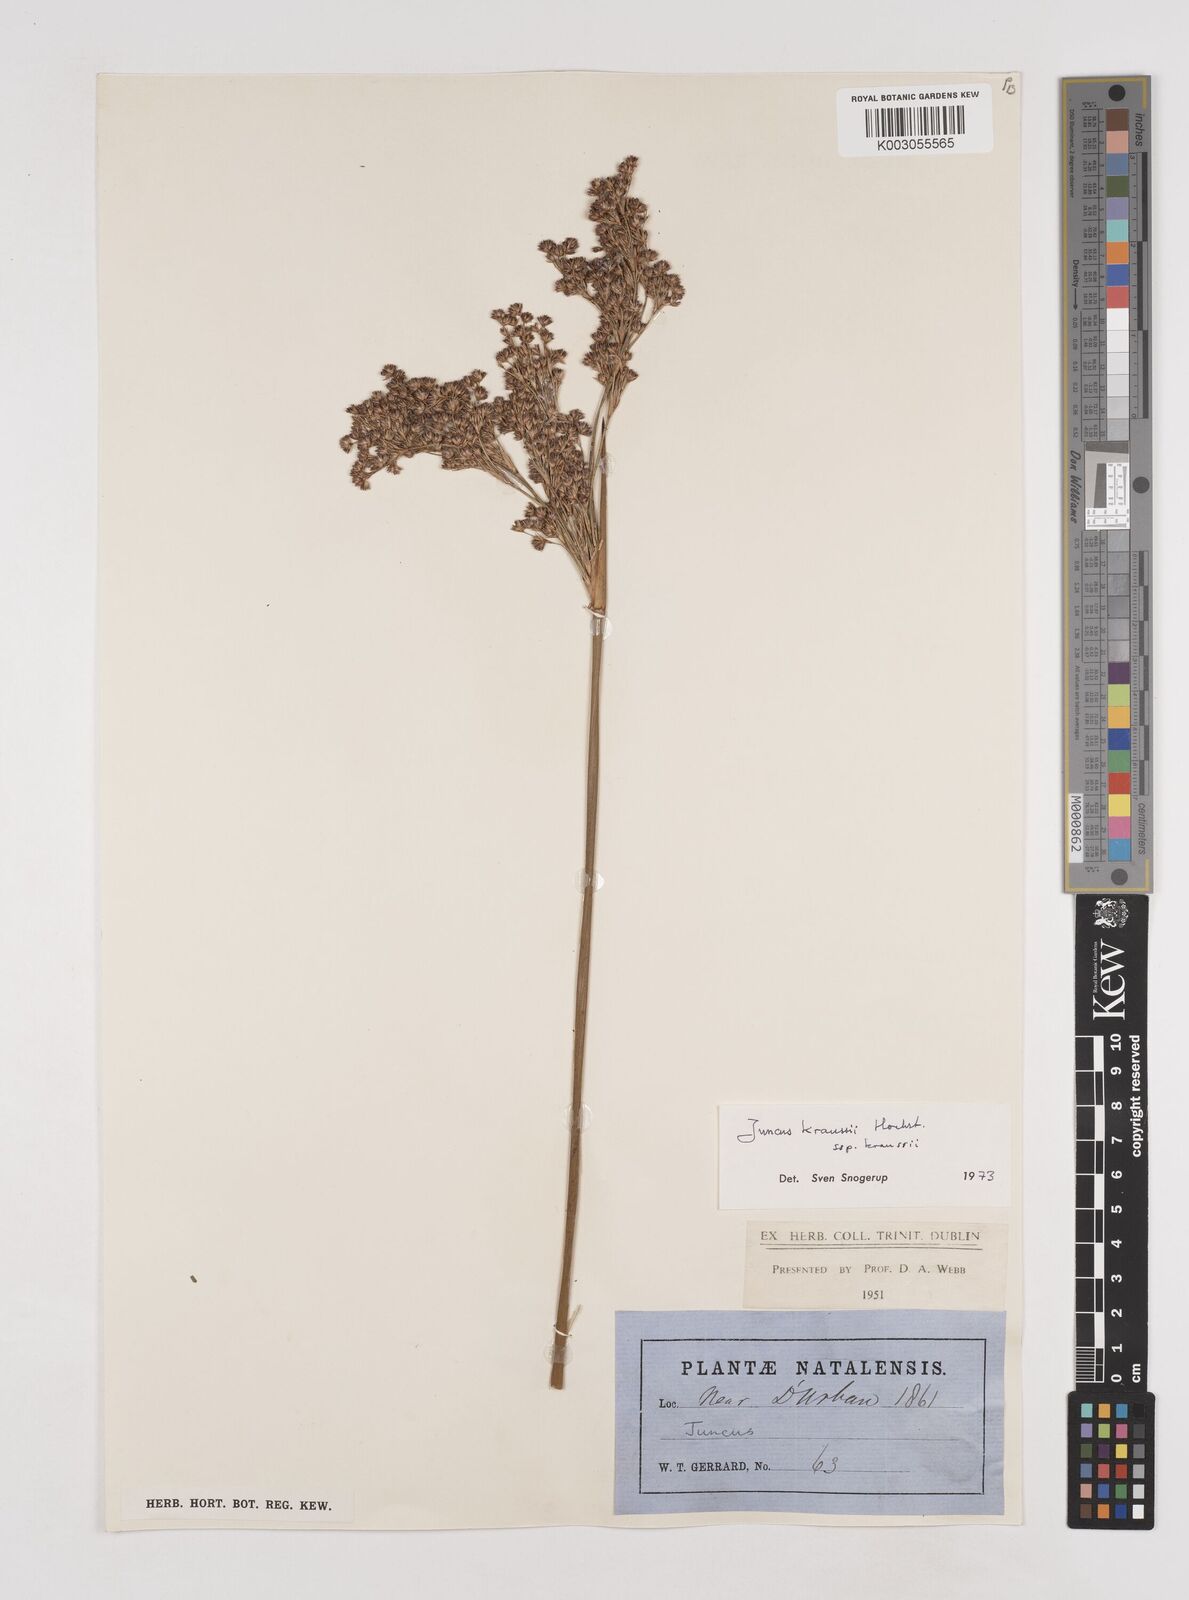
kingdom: Plantae
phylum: Tracheophyta
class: Liliopsida
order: Poales
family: Juncaceae
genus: Juncus
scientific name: Juncus kraussii
